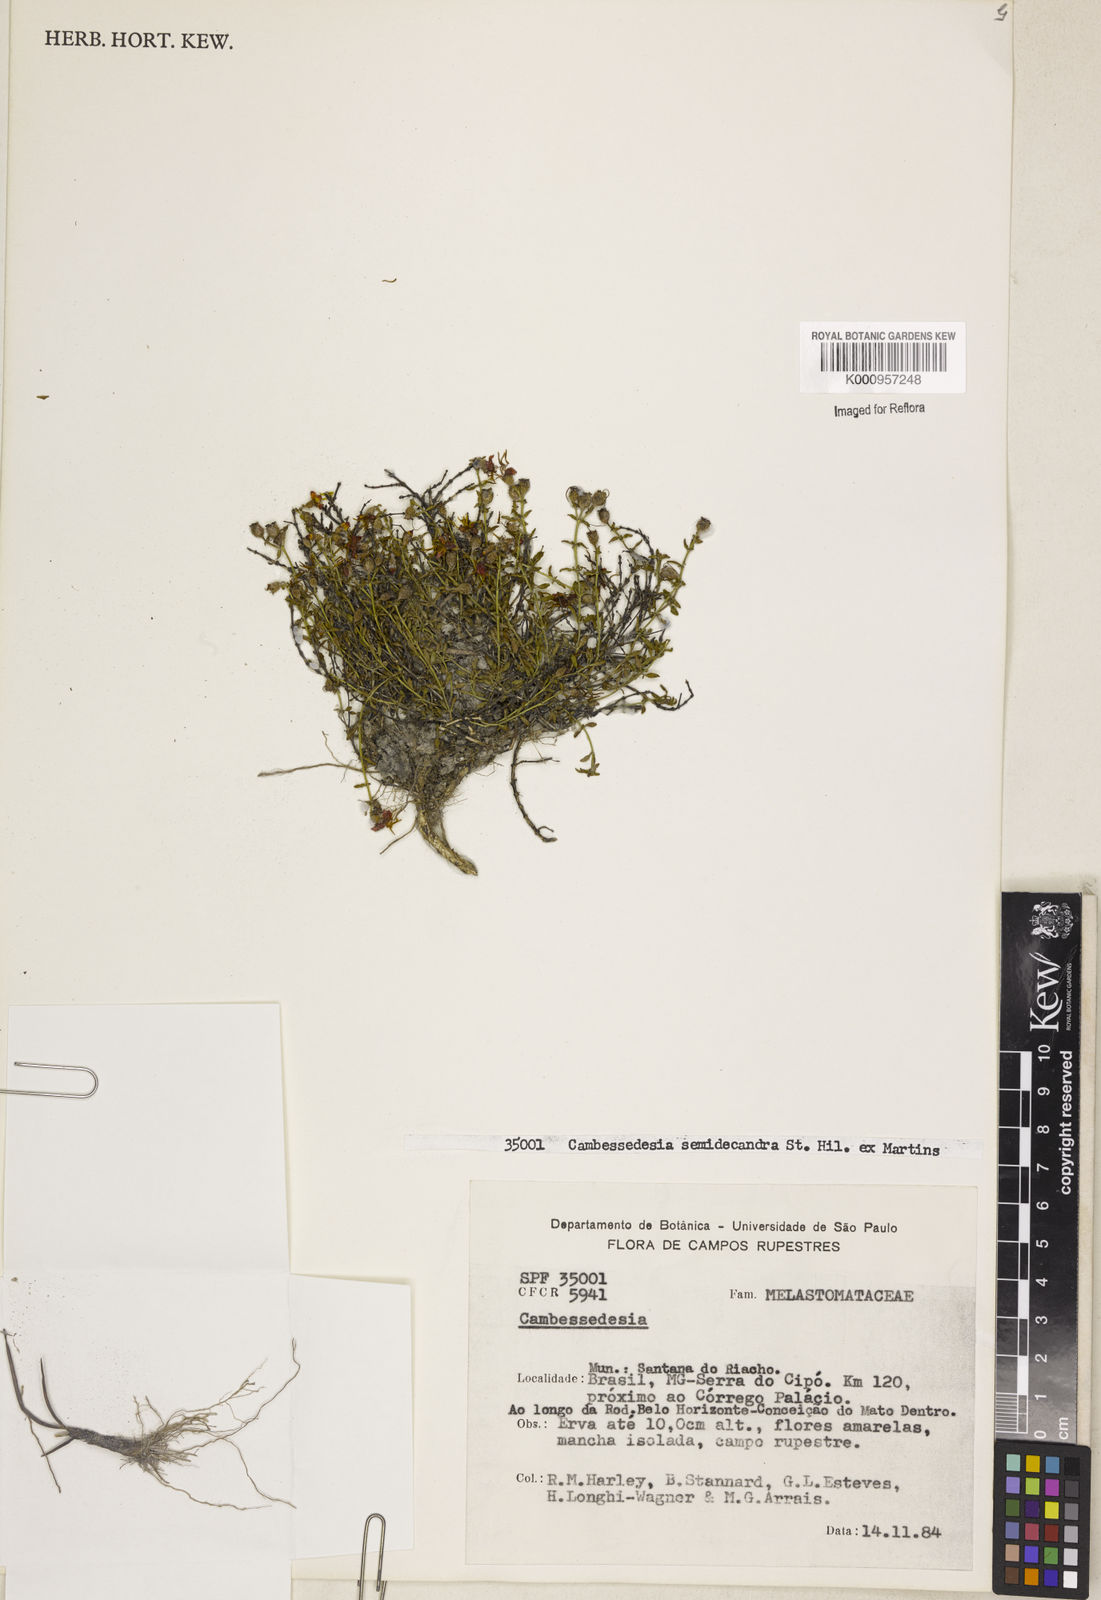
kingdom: Plantae
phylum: Tracheophyta
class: Magnoliopsida
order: Myrtales
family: Melastomataceae
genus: Cambessedesia
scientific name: Cambessedesia semidecandra
